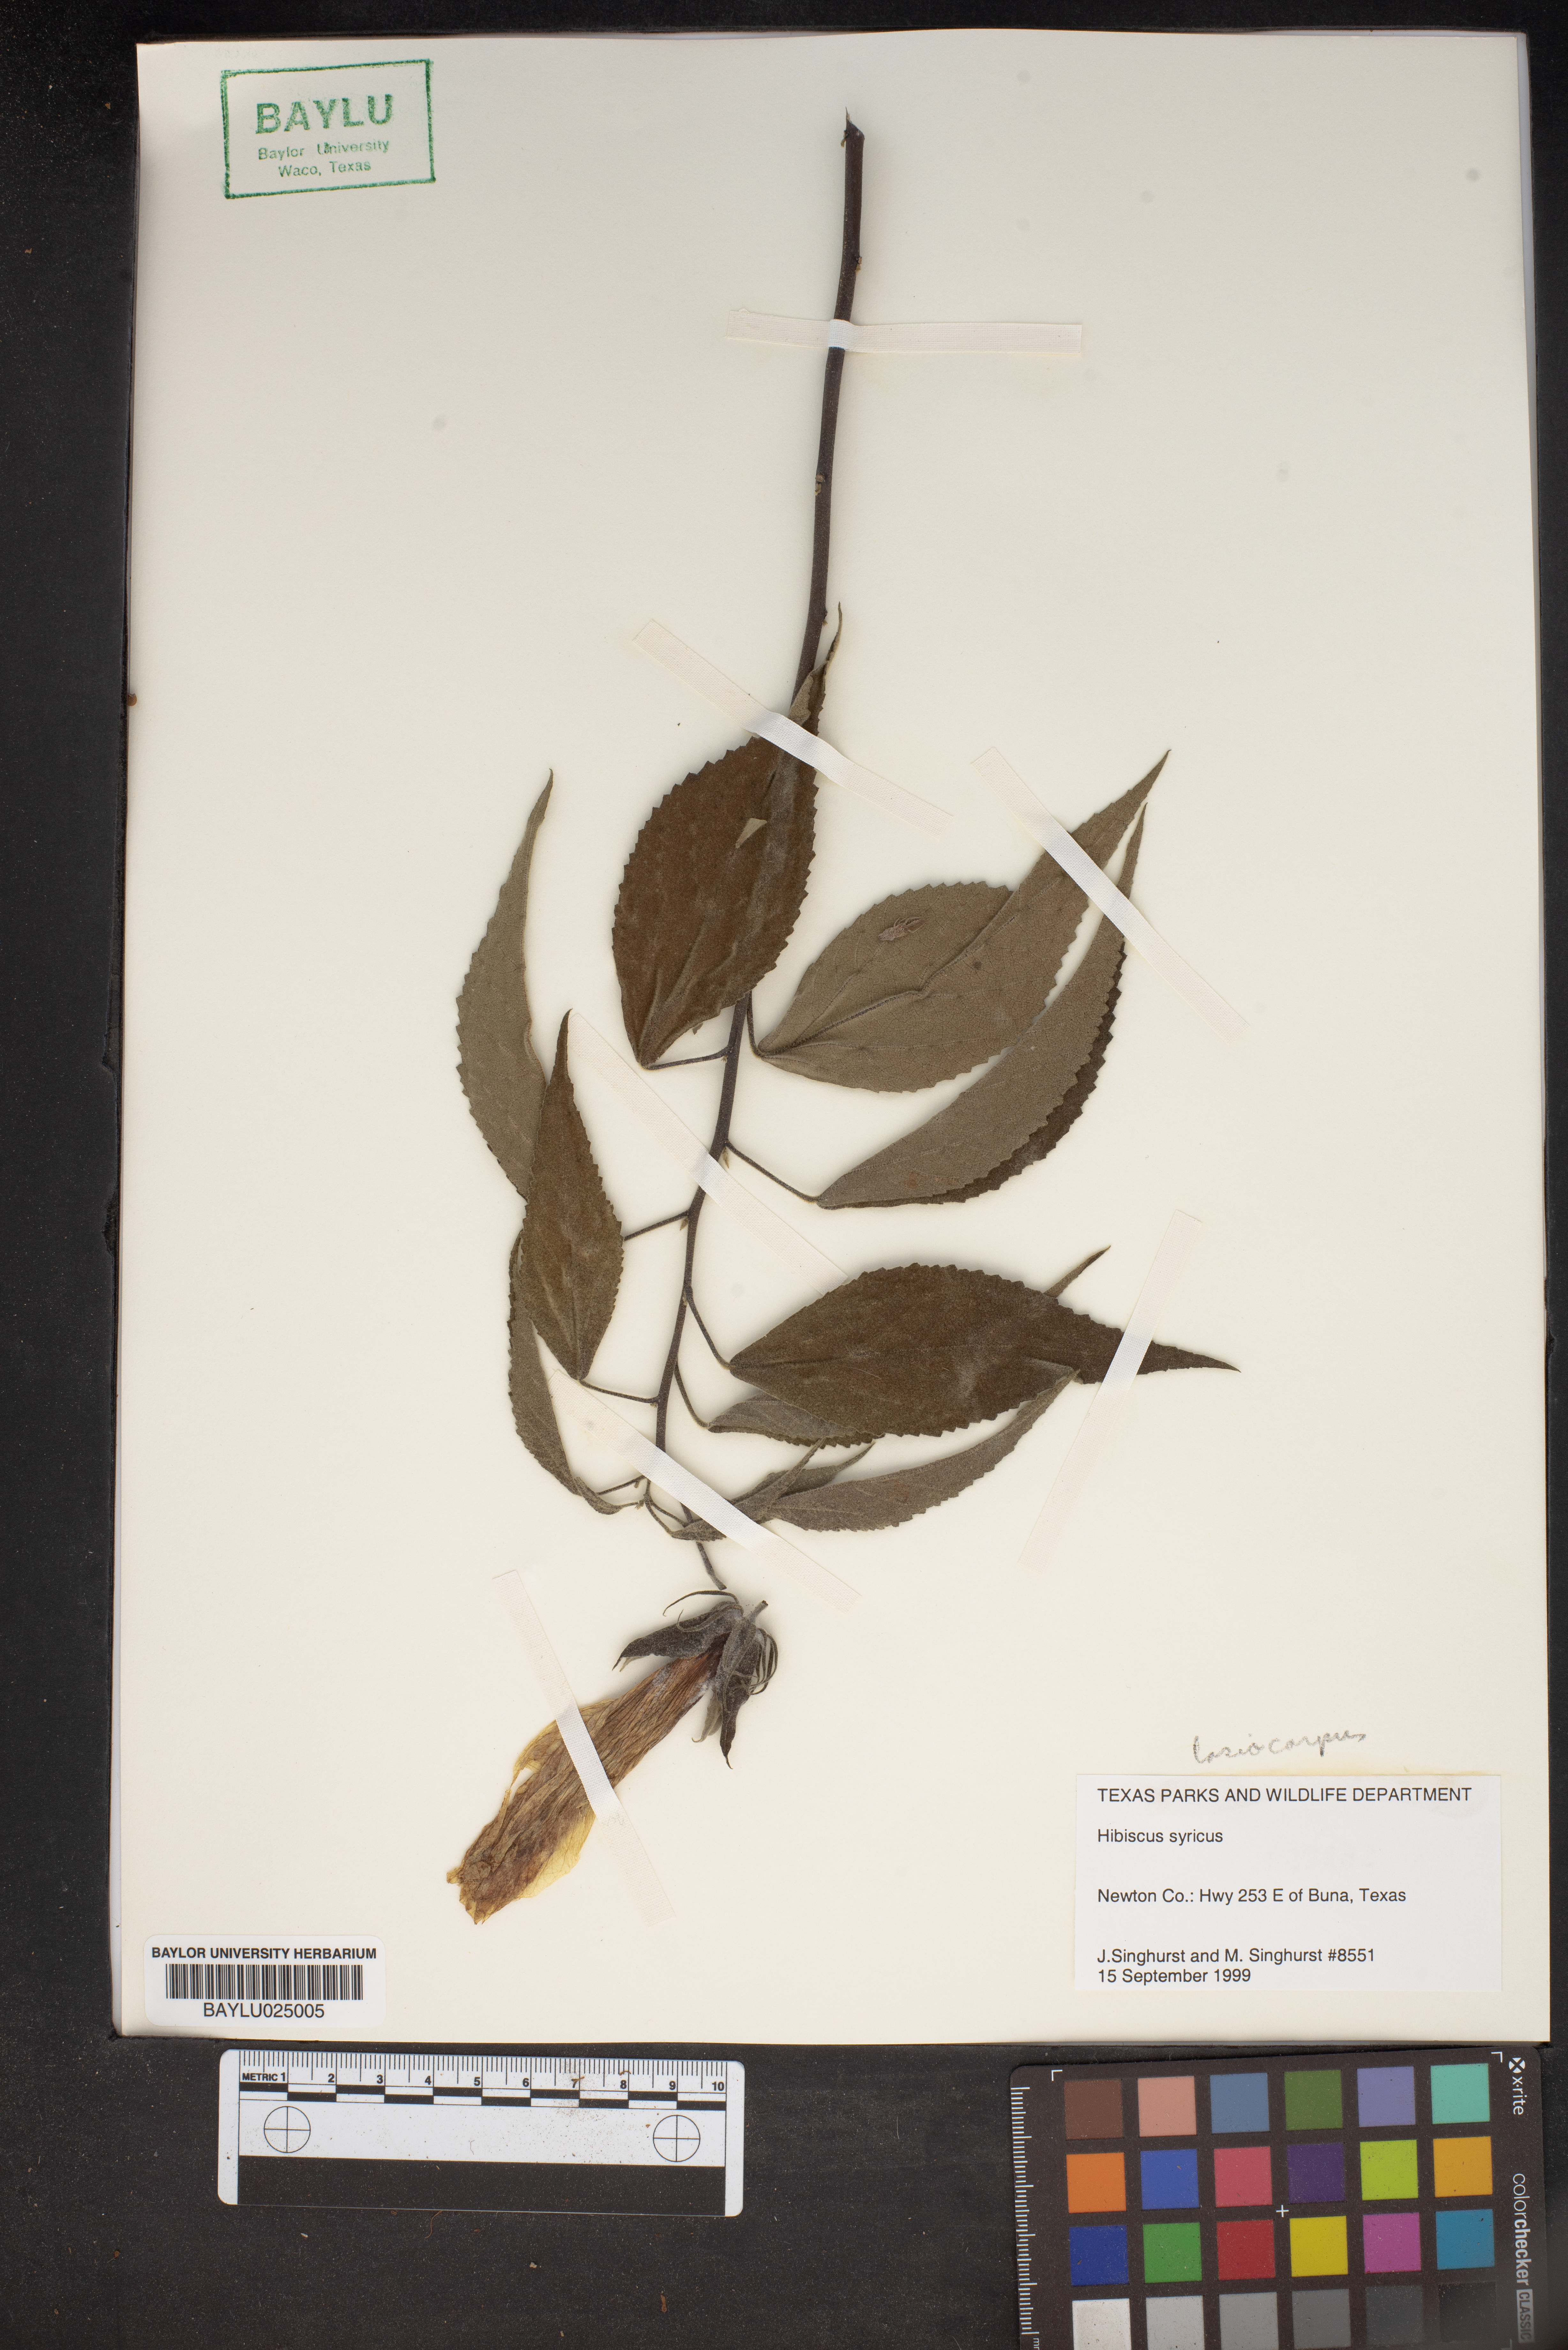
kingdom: Plantae
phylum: Tracheophyta
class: Magnoliopsida
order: Malvales
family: Malvaceae
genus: Hibiscus
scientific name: Hibiscus syriacus
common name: Syrian ketmia
